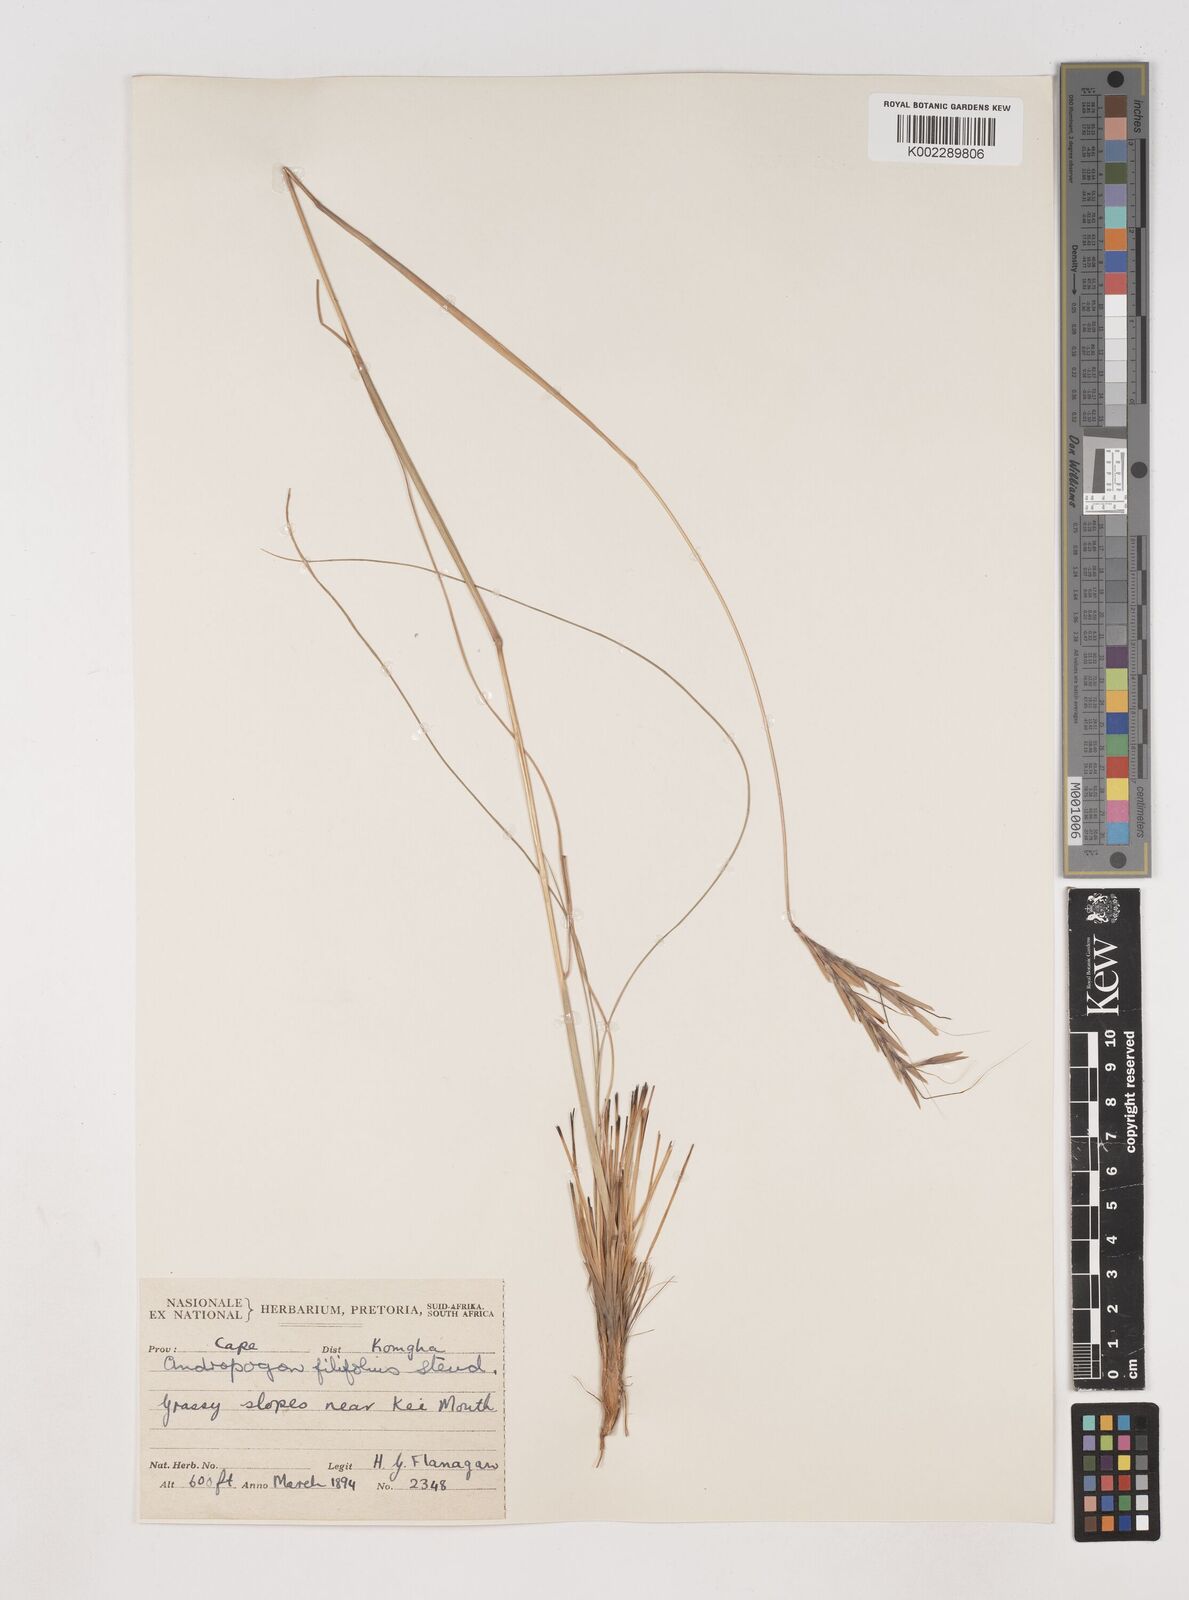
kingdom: Plantae
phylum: Tracheophyta
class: Liliopsida
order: Poales
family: Poaceae
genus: Diheteropogon
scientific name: Diheteropogon filifolius
